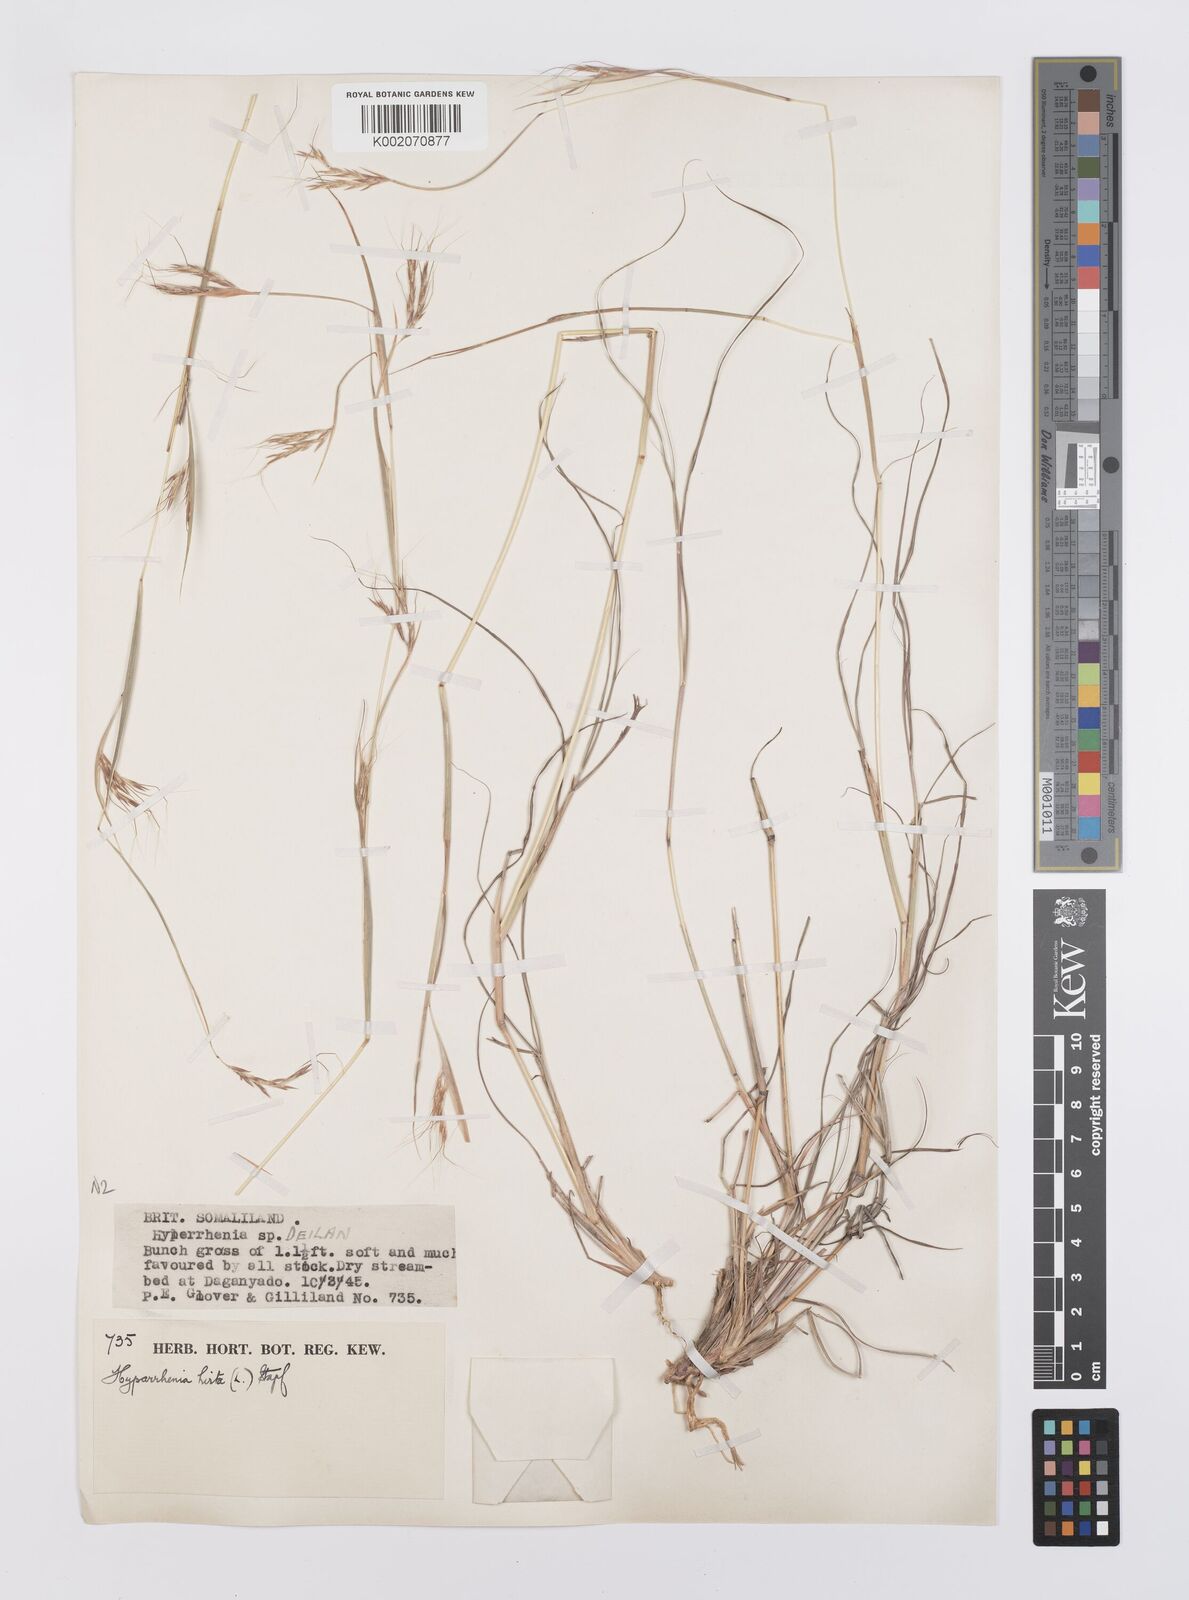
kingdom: Plantae
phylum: Tracheophyta
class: Liliopsida
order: Poales
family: Poaceae
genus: Hyparrhenia
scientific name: Hyparrhenia hirta
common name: Thatching grass
